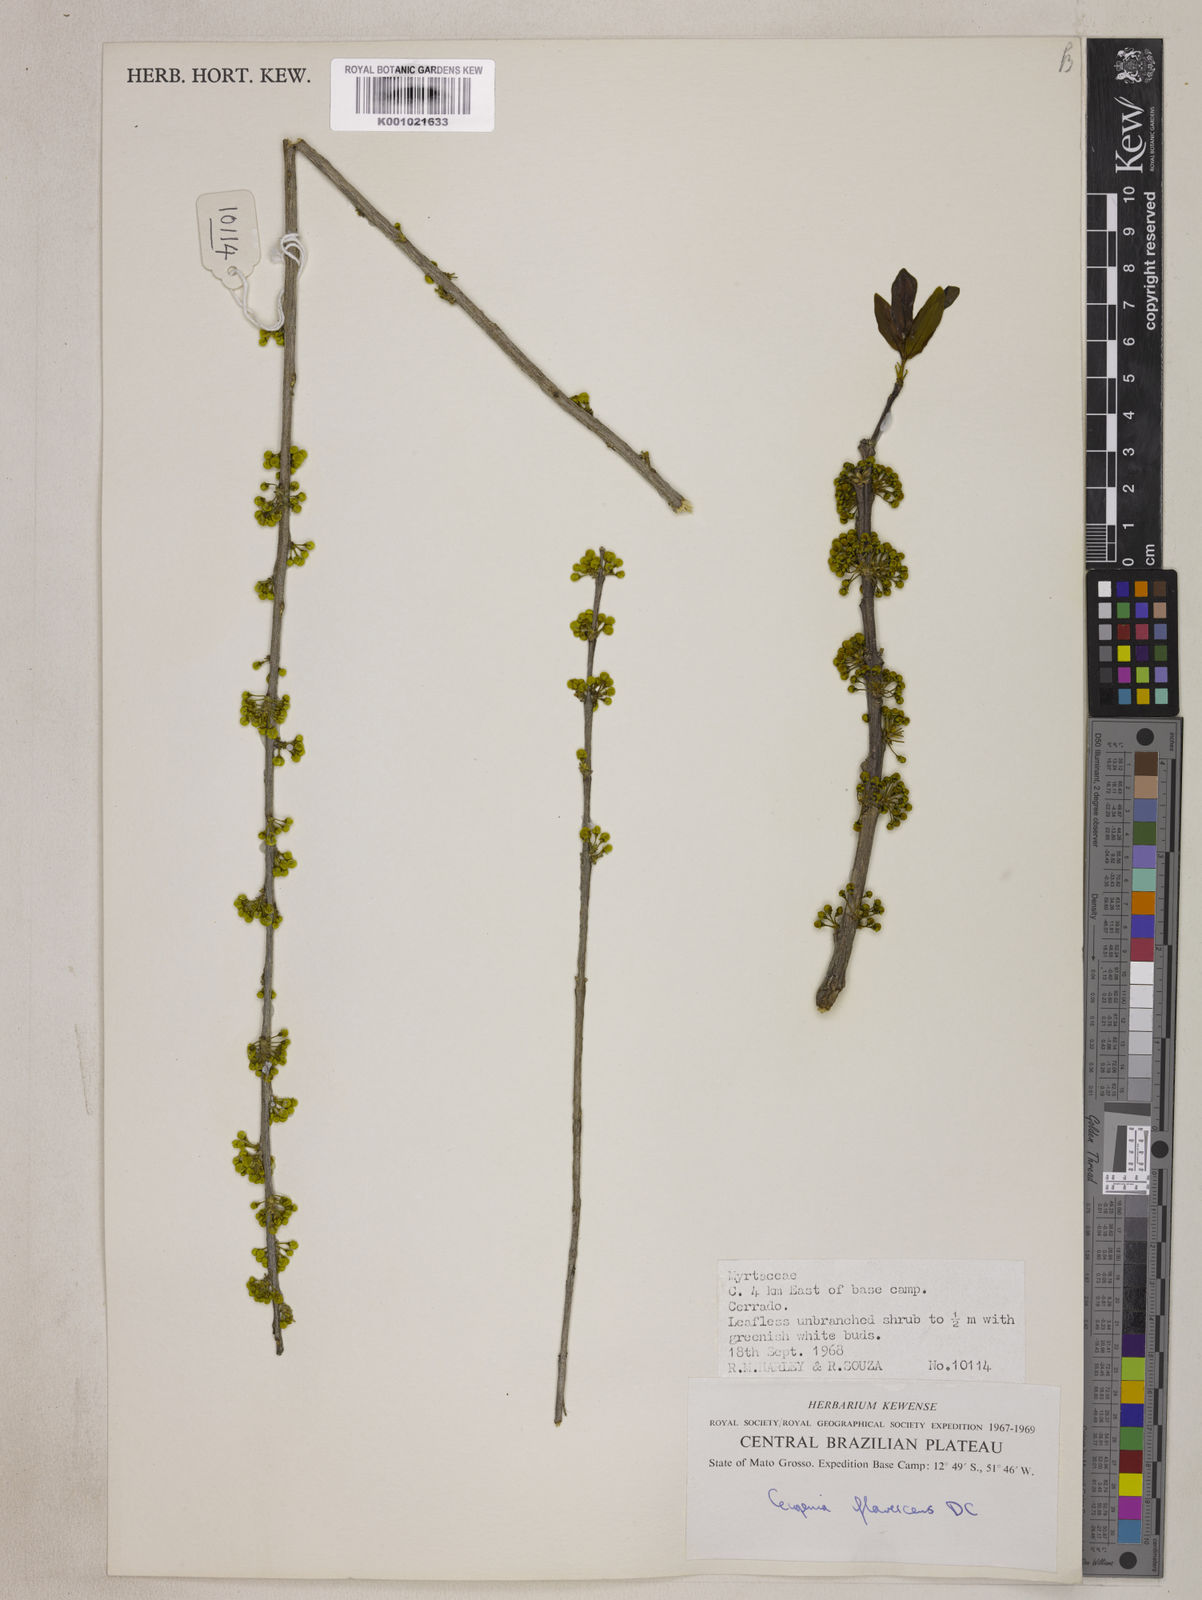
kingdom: Plantae
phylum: Tracheophyta
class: Magnoliopsida
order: Myrtales
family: Myrtaceae
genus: Eugenia
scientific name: Eugenia flavescens
